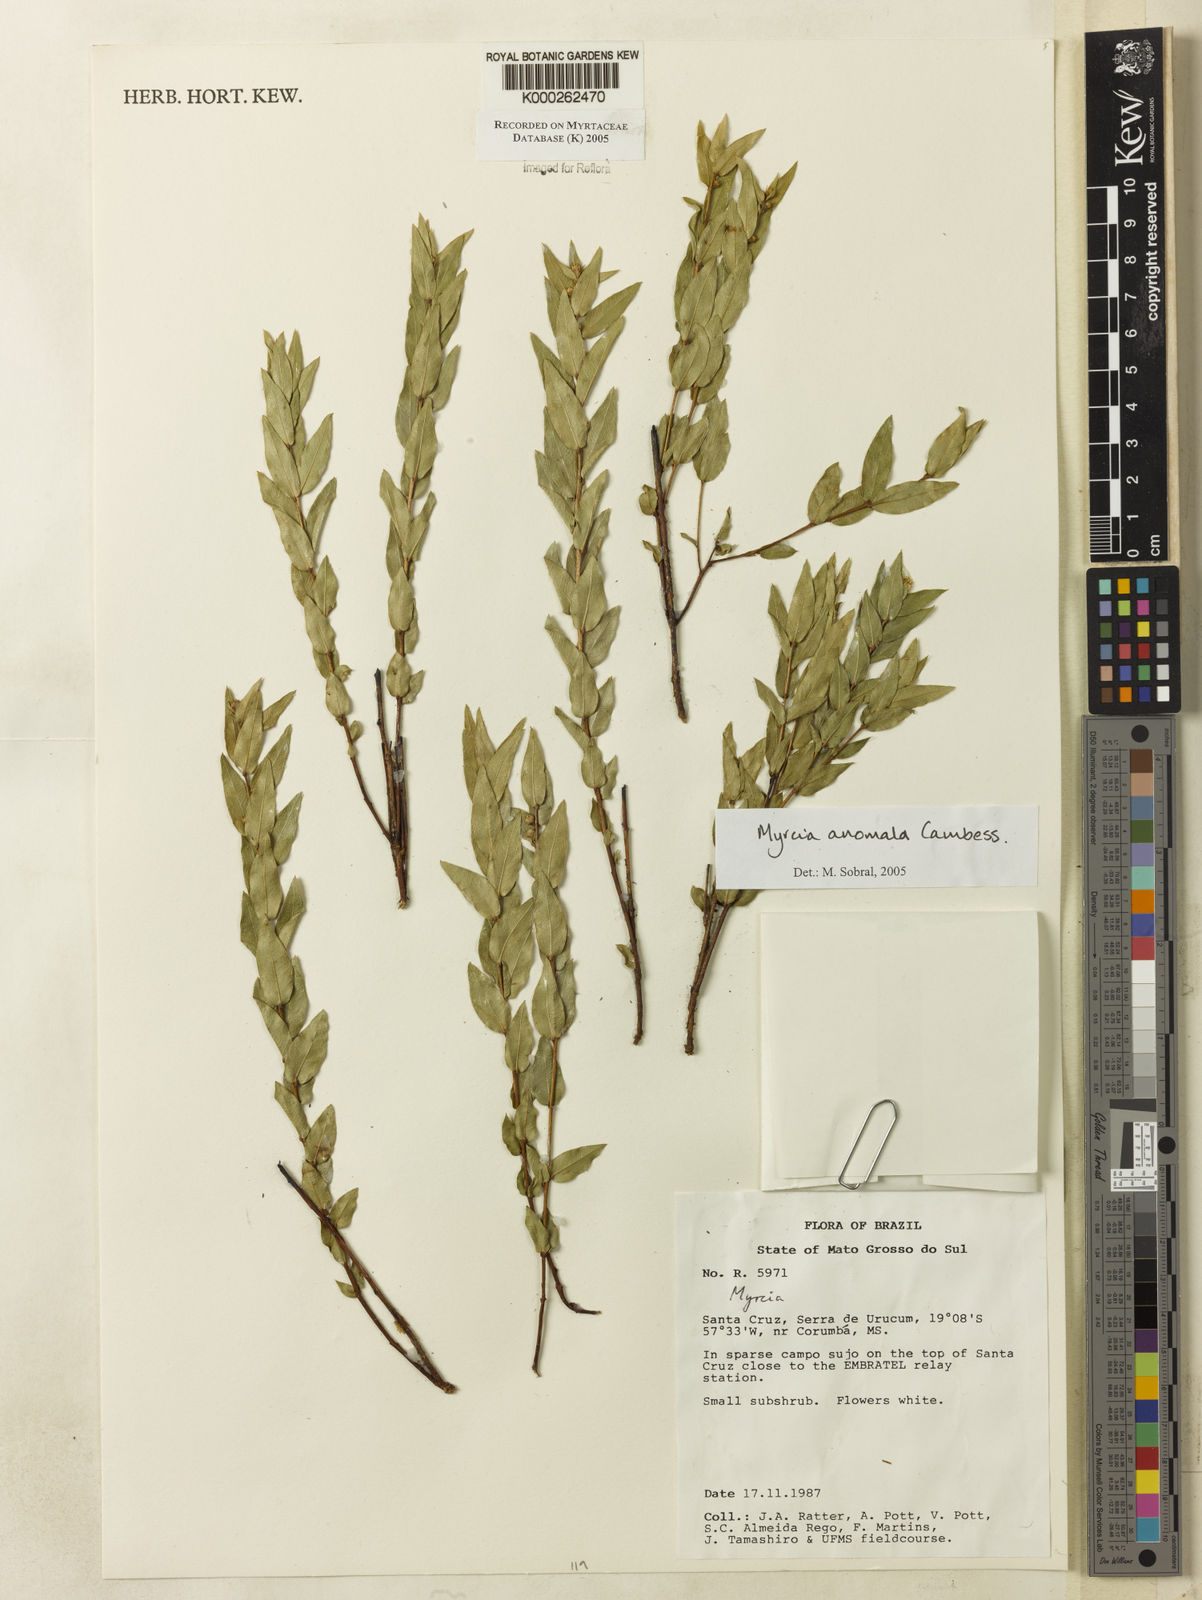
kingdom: Plantae
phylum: Tracheophyta
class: Magnoliopsida
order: Myrtales
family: Myrtaceae
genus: Myrcia
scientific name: Myrcia anomala
